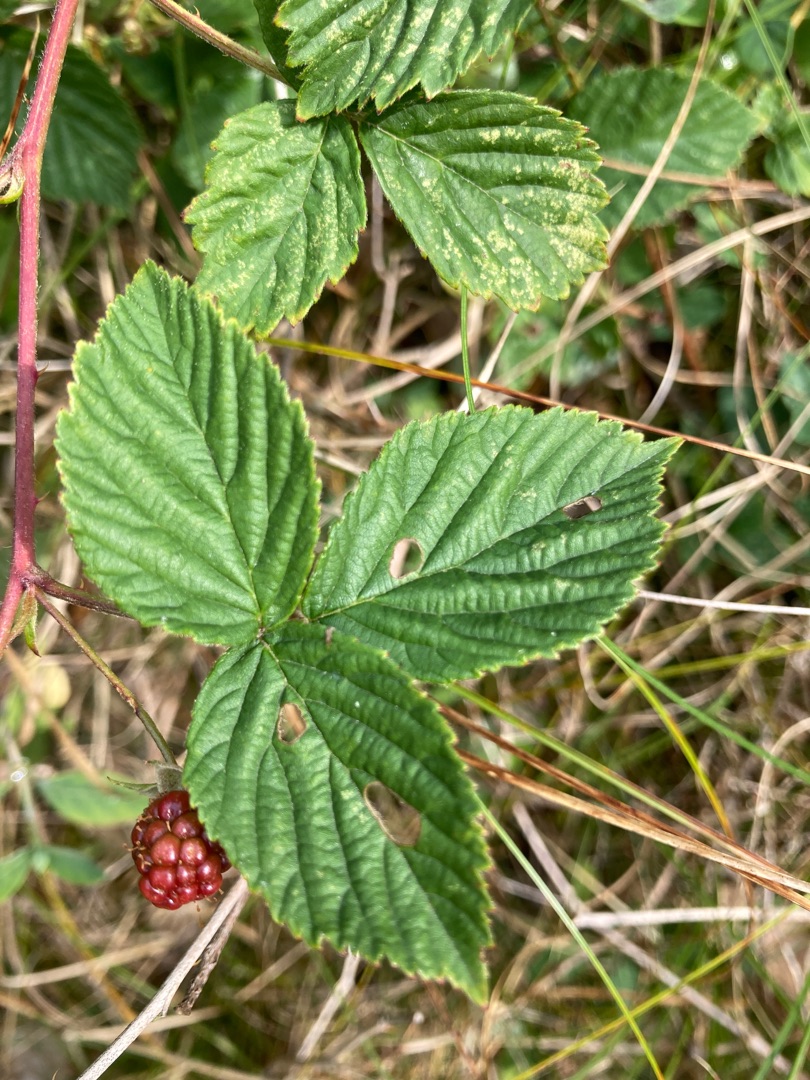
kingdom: Plantae
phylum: Tracheophyta
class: Magnoliopsida
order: Rosales
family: Rosaceae
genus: Rubus
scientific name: Rubus plicatus
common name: Almindelig brombær
